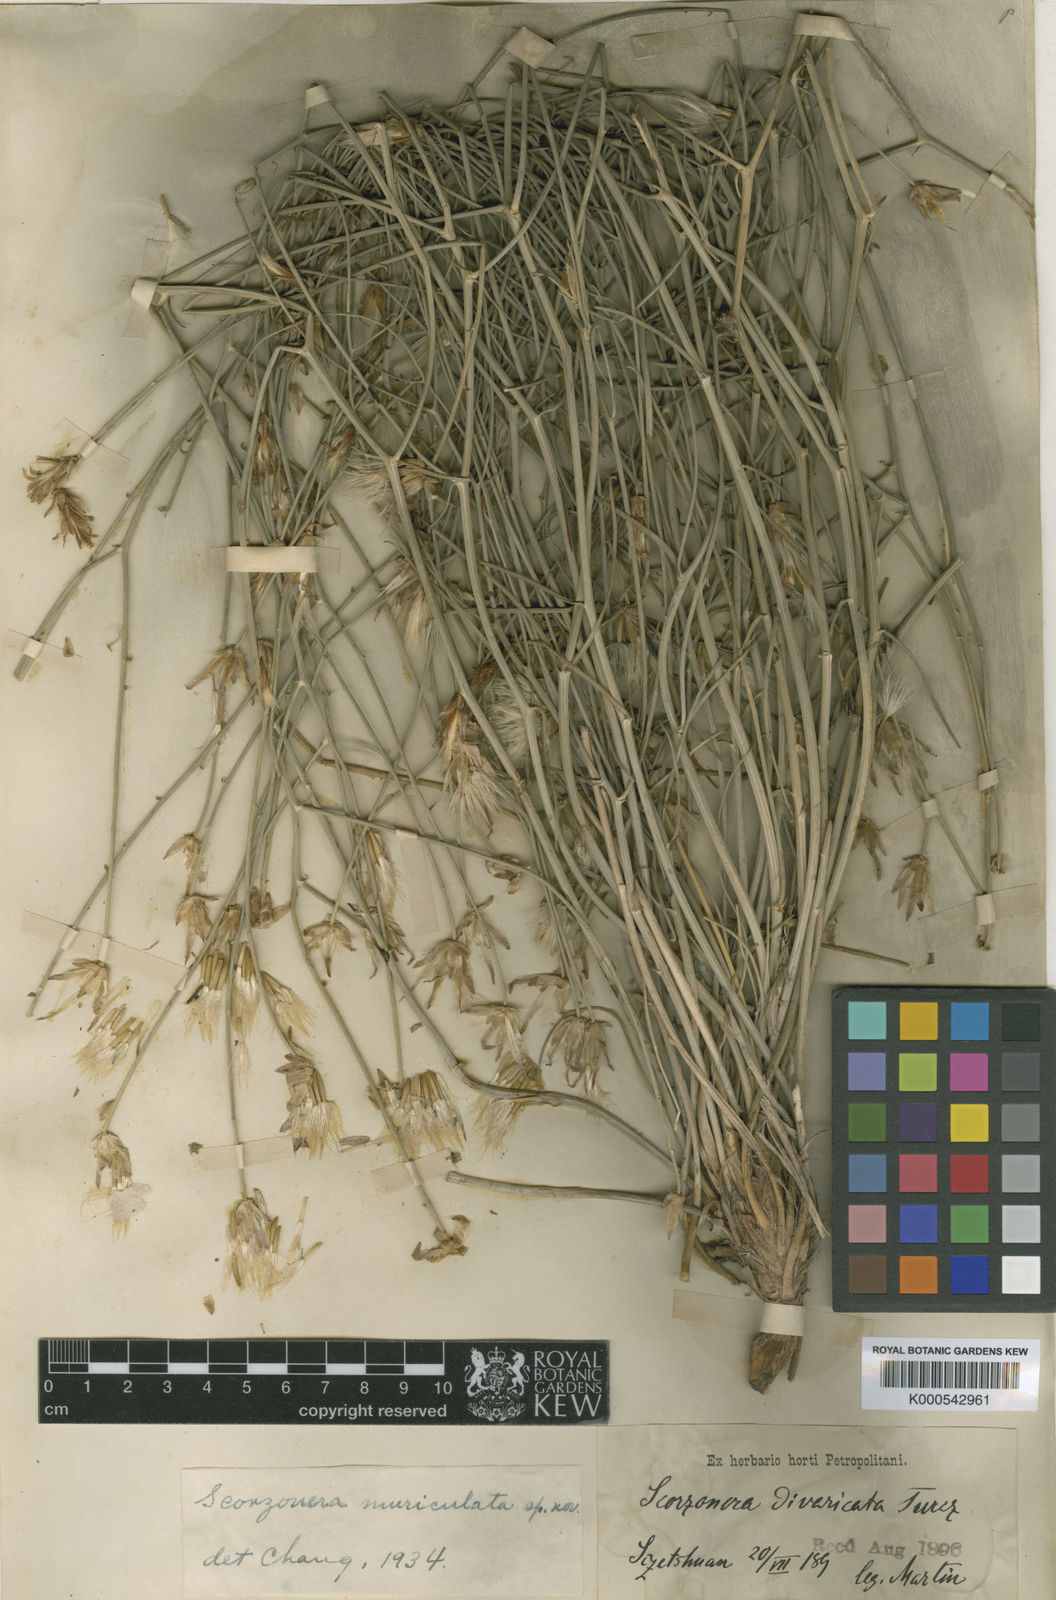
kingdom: Plantae
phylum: Tracheophyta
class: Magnoliopsida
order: Asterales
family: Asteraceae
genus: Takhtajaniantha
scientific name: Takhtajaniantha pseudodivaricata
